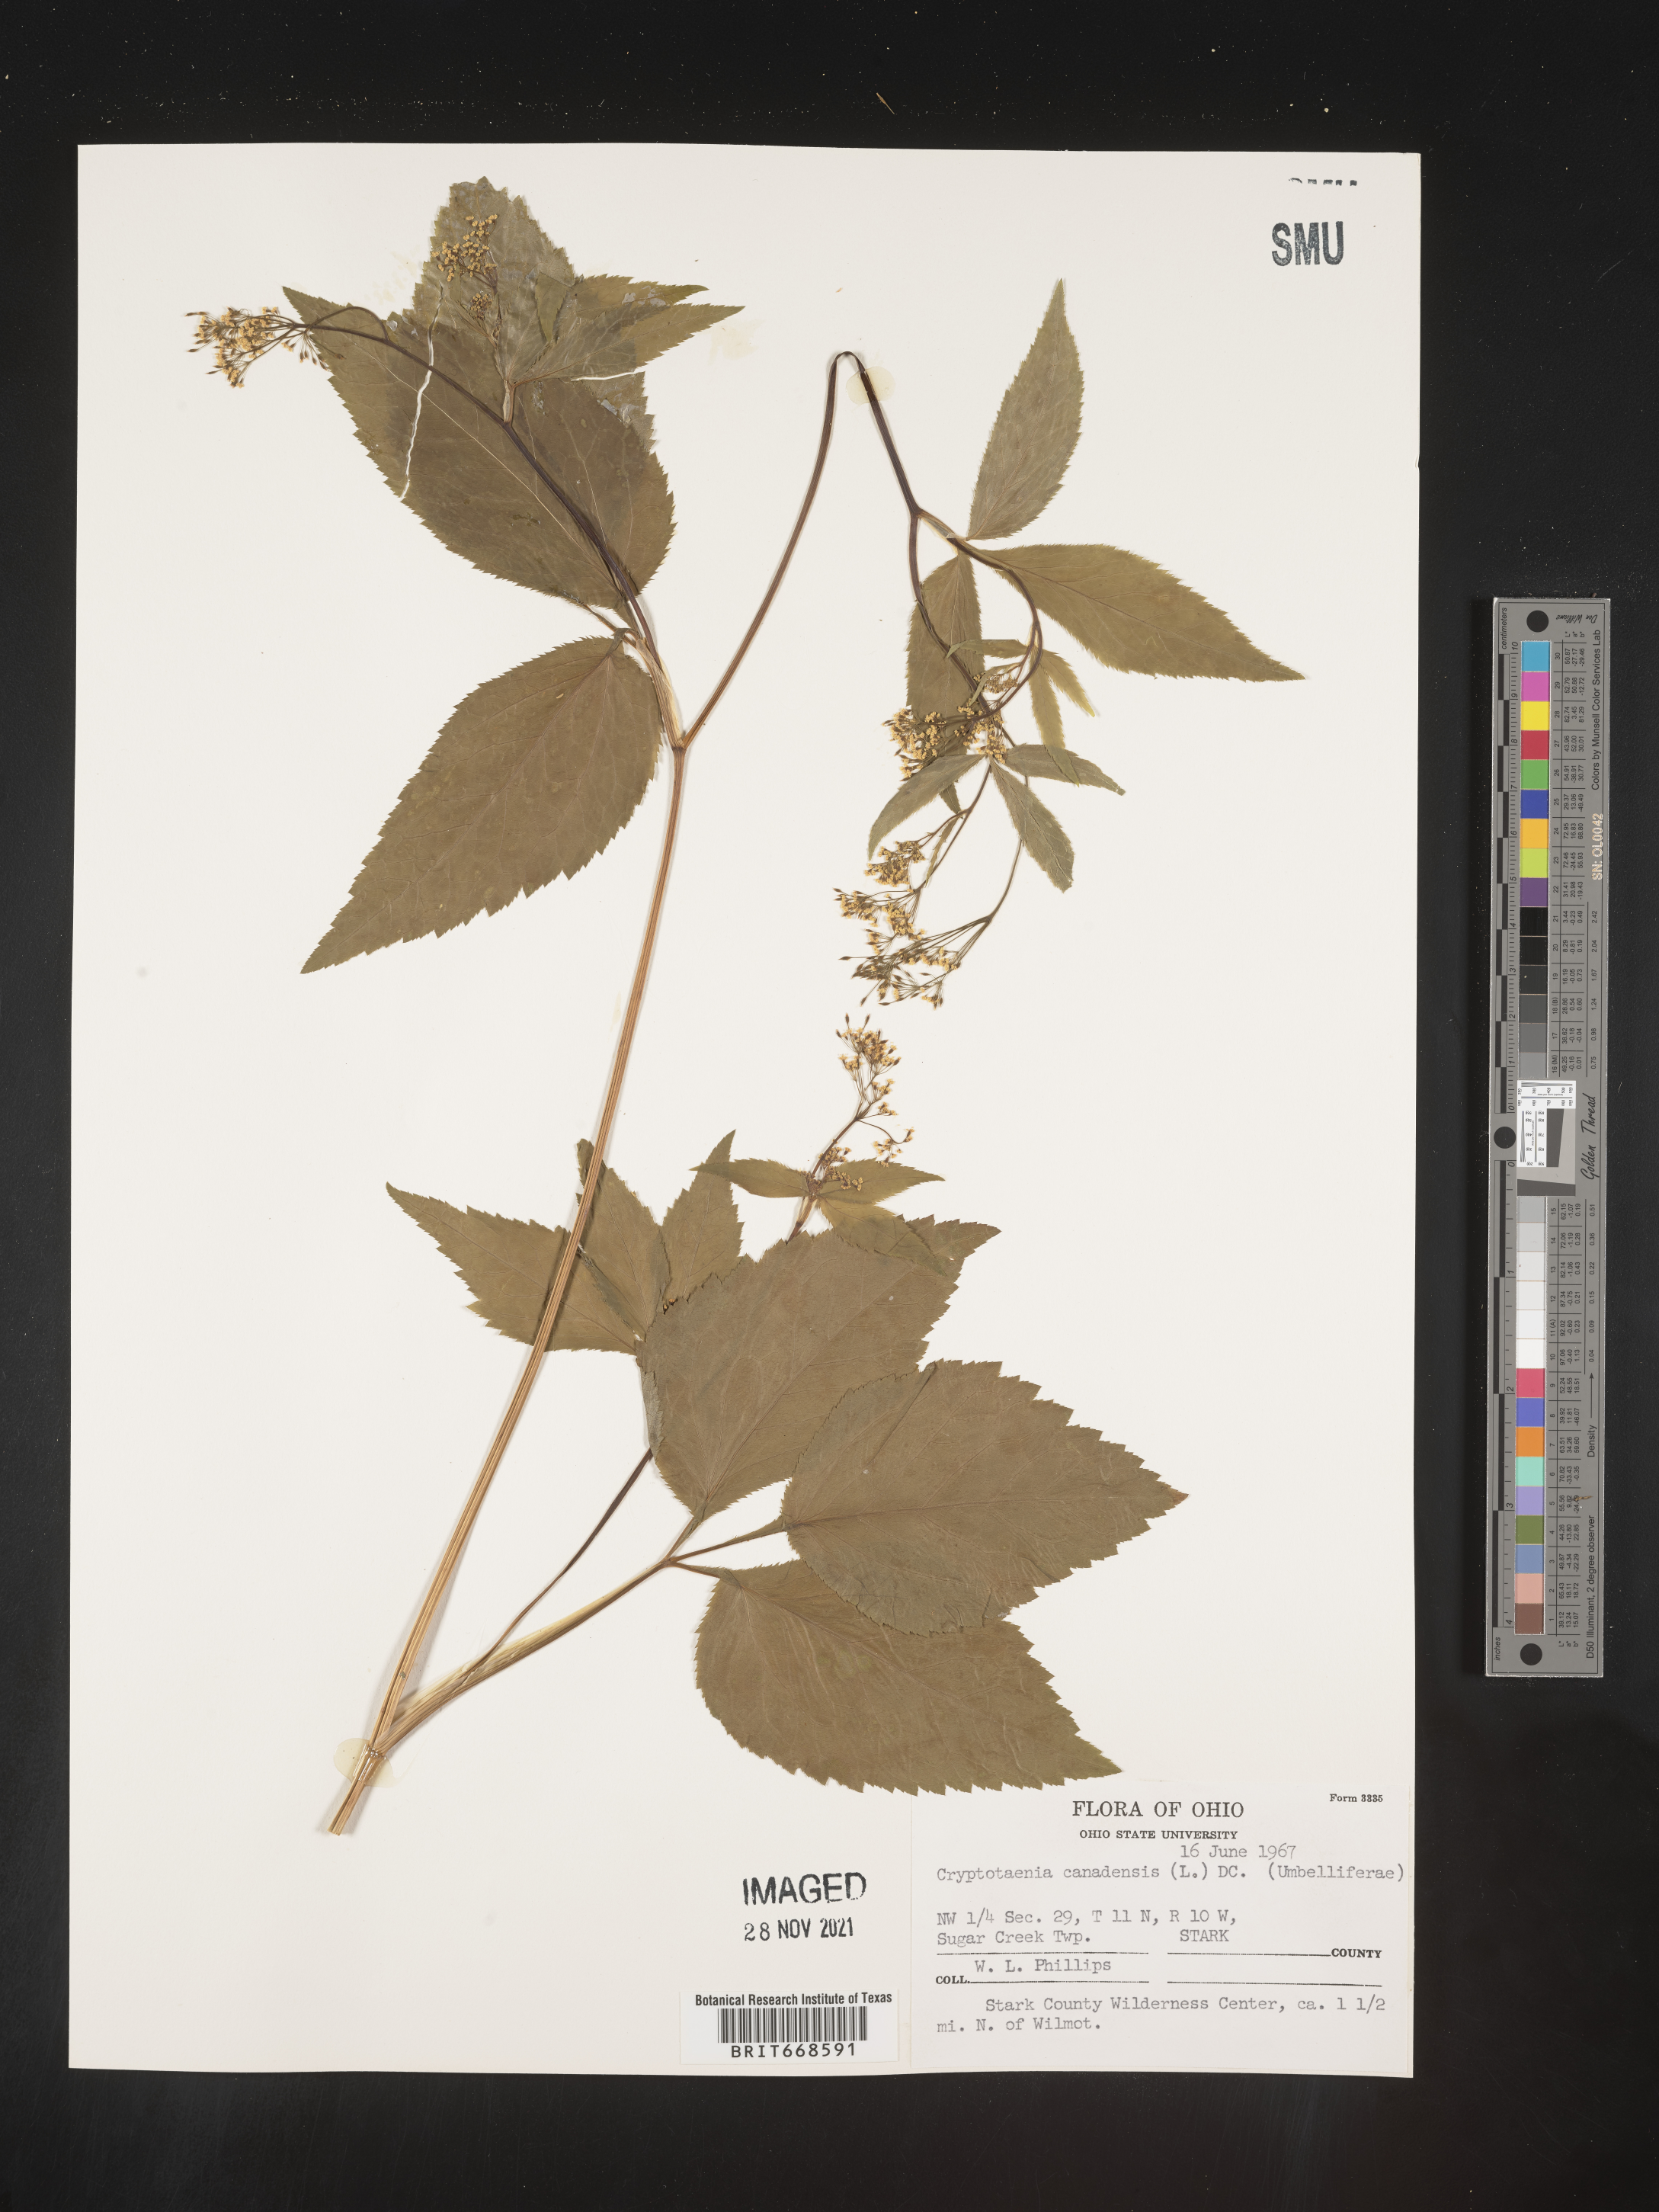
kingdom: Plantae
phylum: Tracheophyta
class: Magnoliopsida
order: Apiales
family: Apiaceae
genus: Cryptotaenia
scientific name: Cryptotaenia canadensis
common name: Honewort
